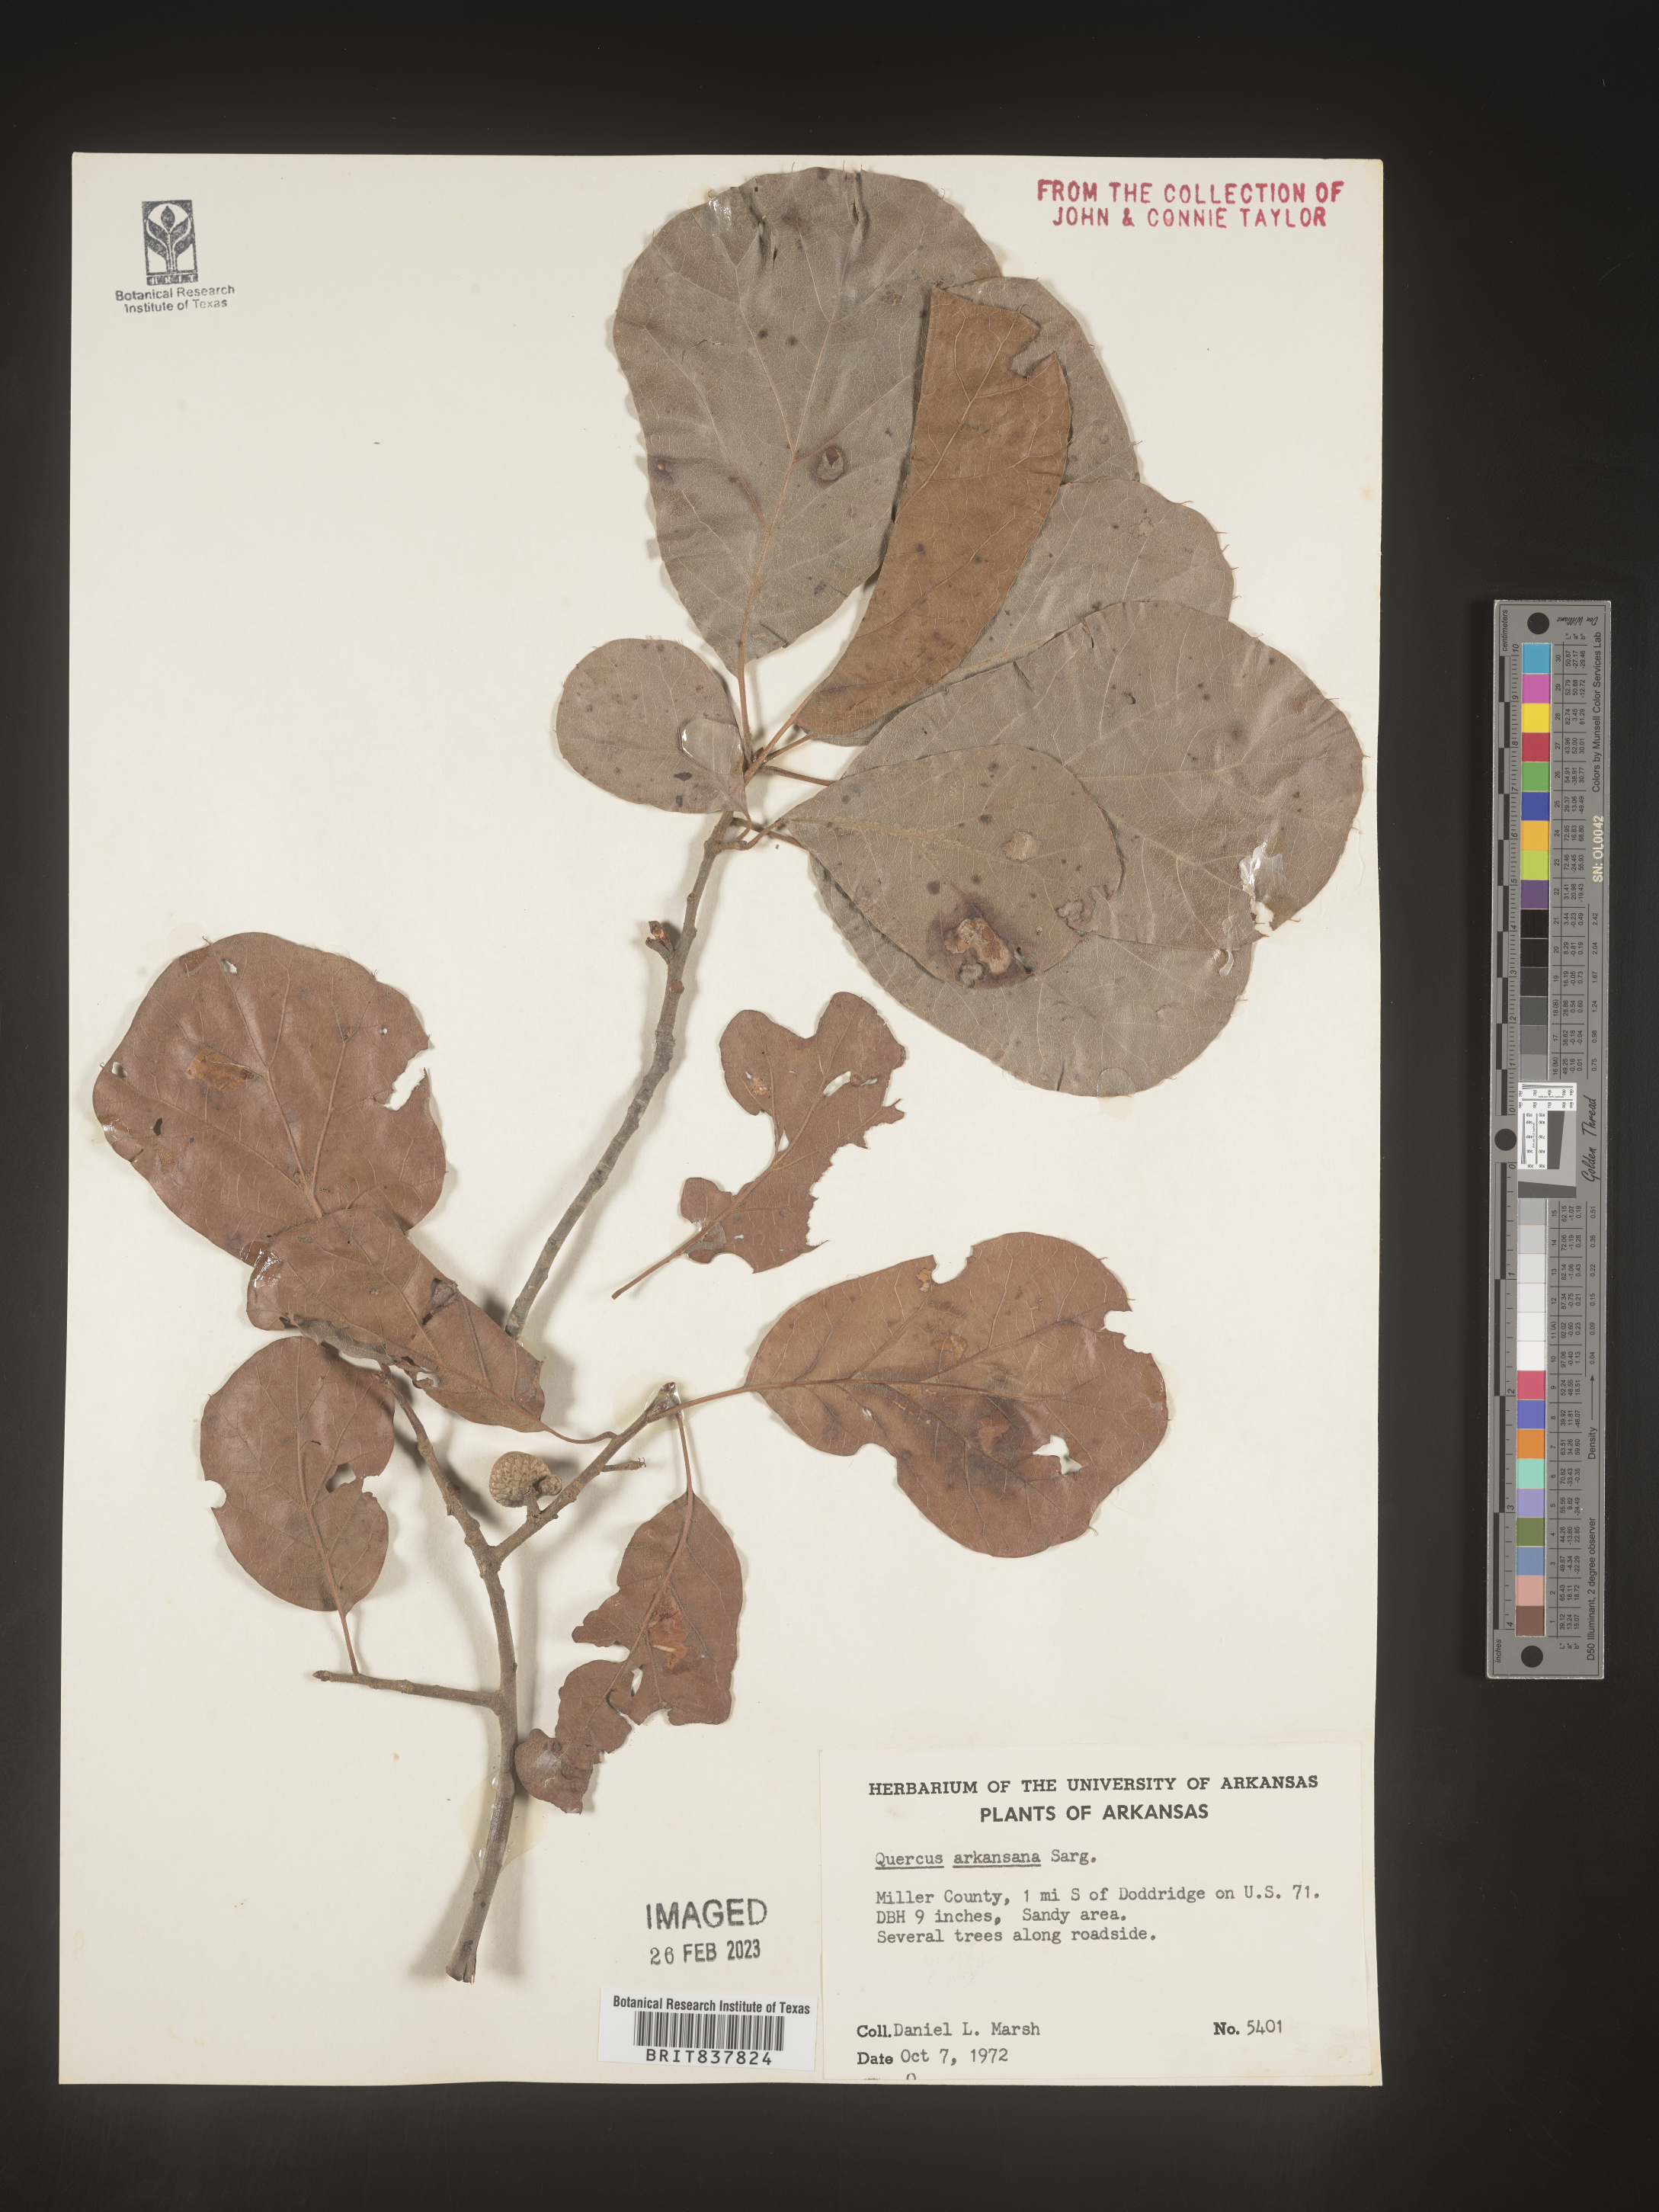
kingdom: Plantae
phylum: Tracheophyta
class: Magnoliopsida
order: Fagales
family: Fagaceae
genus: Quercus
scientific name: Quercus arkansana
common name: Arkansas oak
